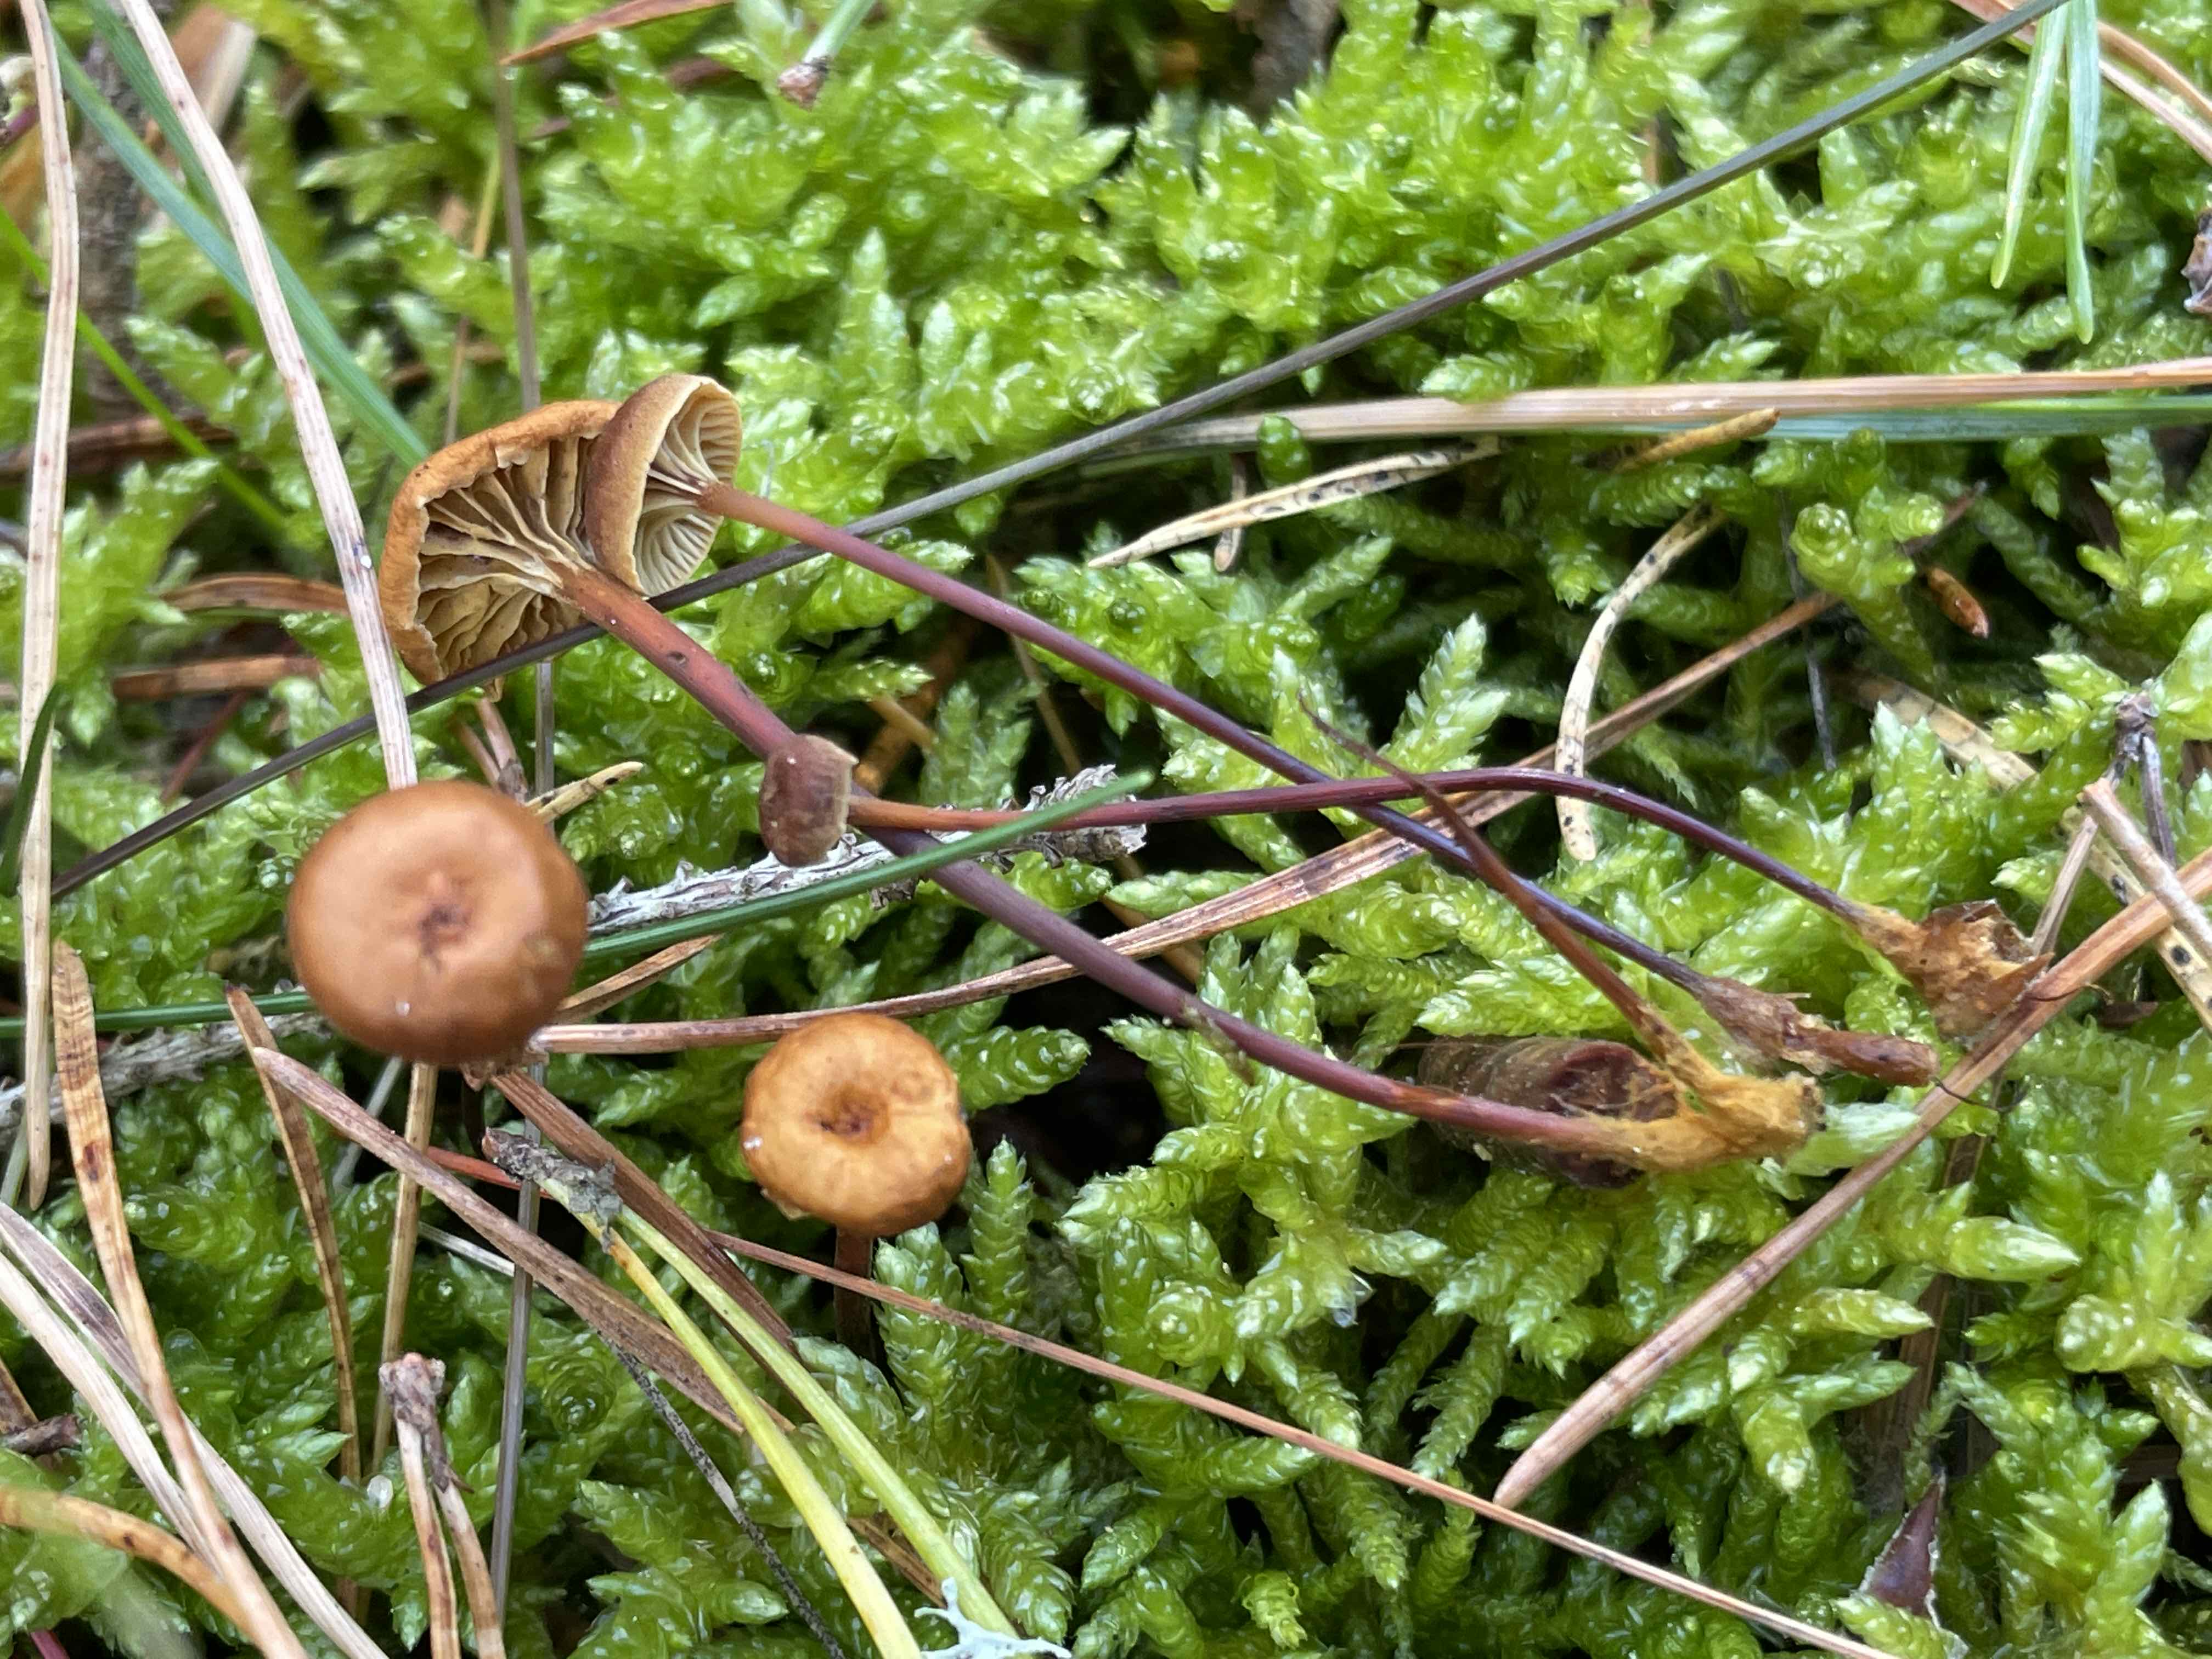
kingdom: Fungi
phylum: Basidiomycota
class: Agaricomycetes
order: Agaricales
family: Mycenaceae
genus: Xeromphalina
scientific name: Xeromphalina cauticinalis
